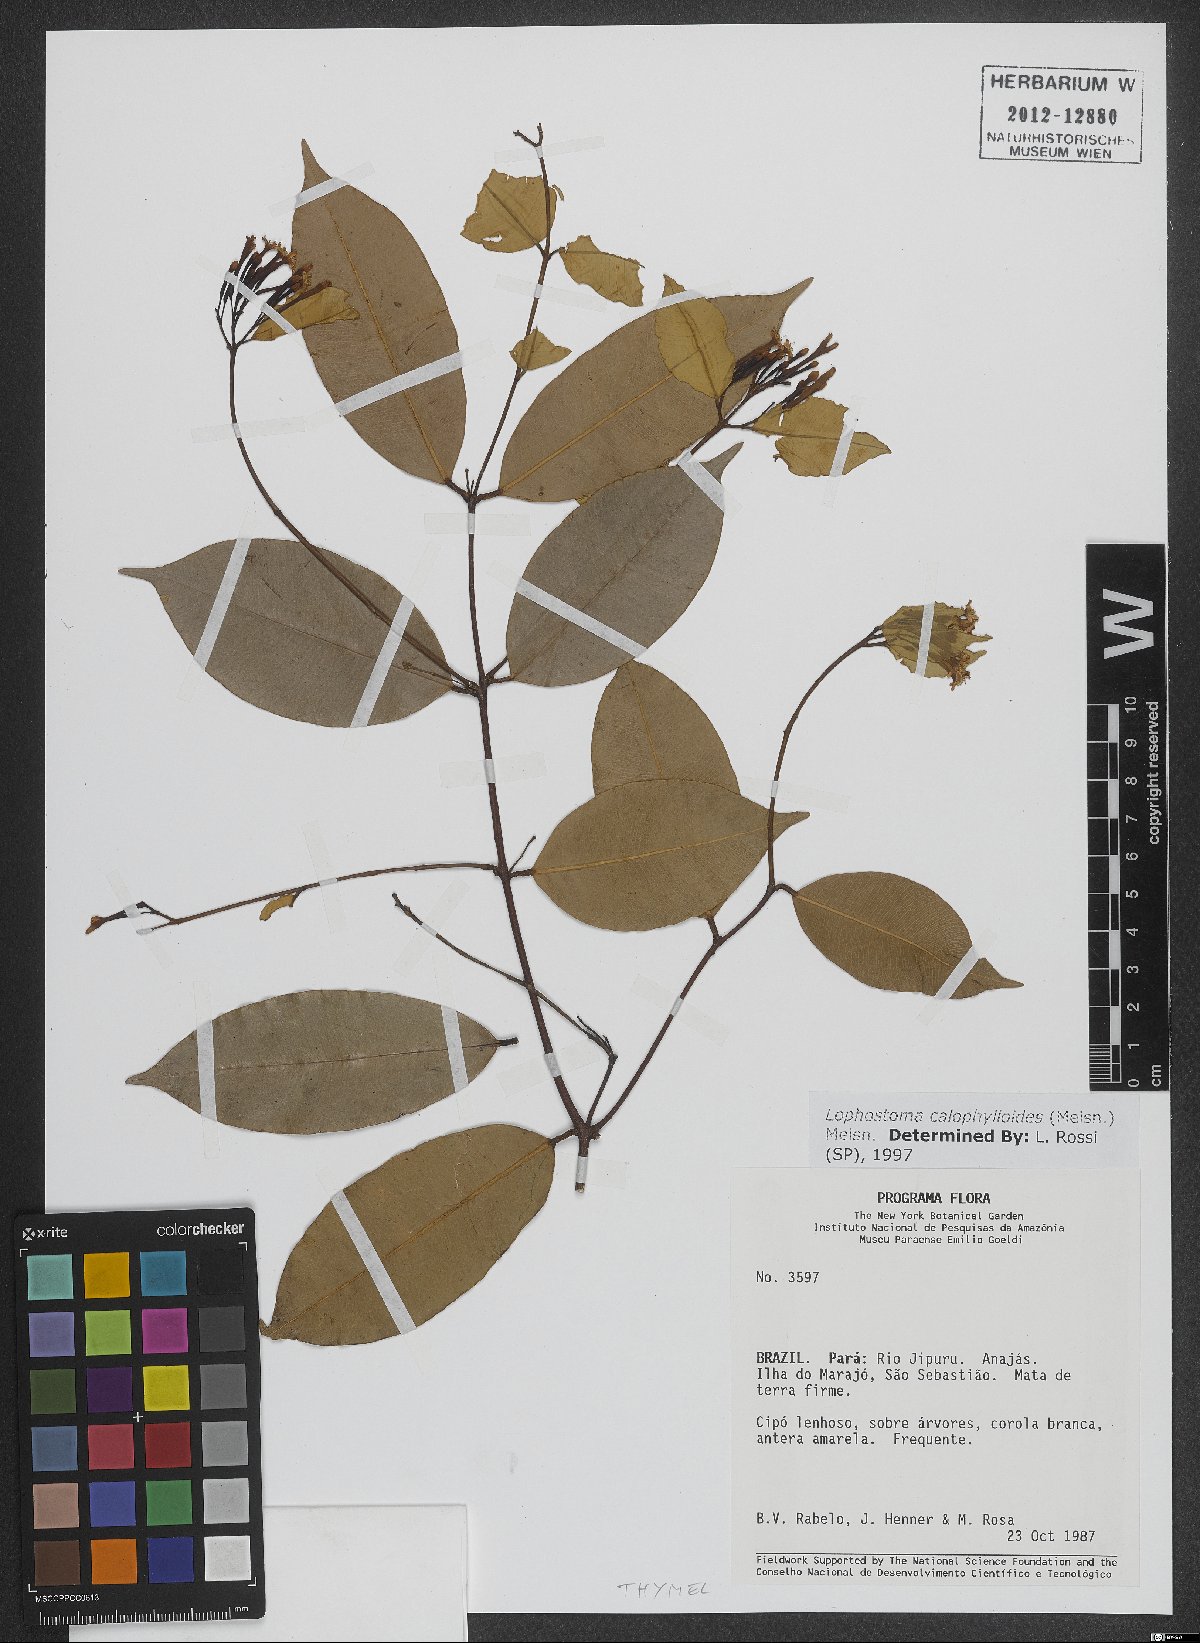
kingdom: Plantae
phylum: Tracheophyta
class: Magnoliopsida
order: Malvales
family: Thymelaeaceae
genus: Lophostoma
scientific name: Lophostoma calophylloides
